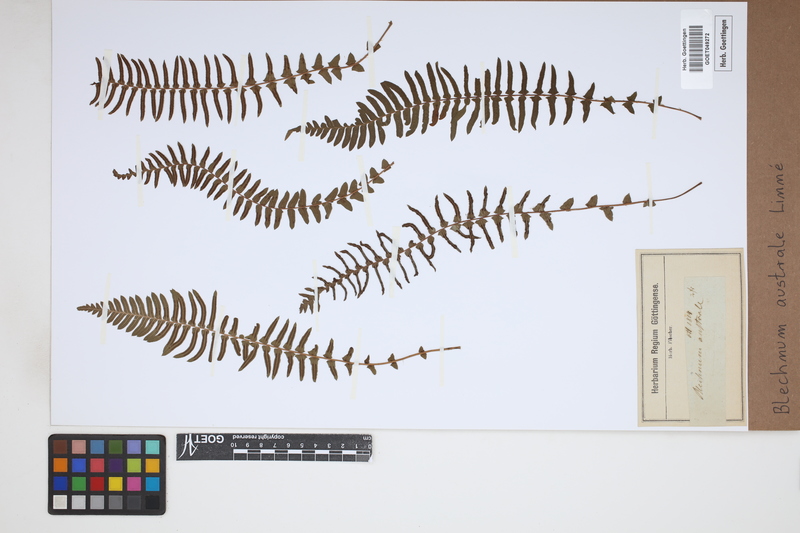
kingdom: Plantae
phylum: Tracheophyta
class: Polypodiopsida
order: Polypodiales
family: Blechnaceae
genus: Blechnum
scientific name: Blechnum australe
